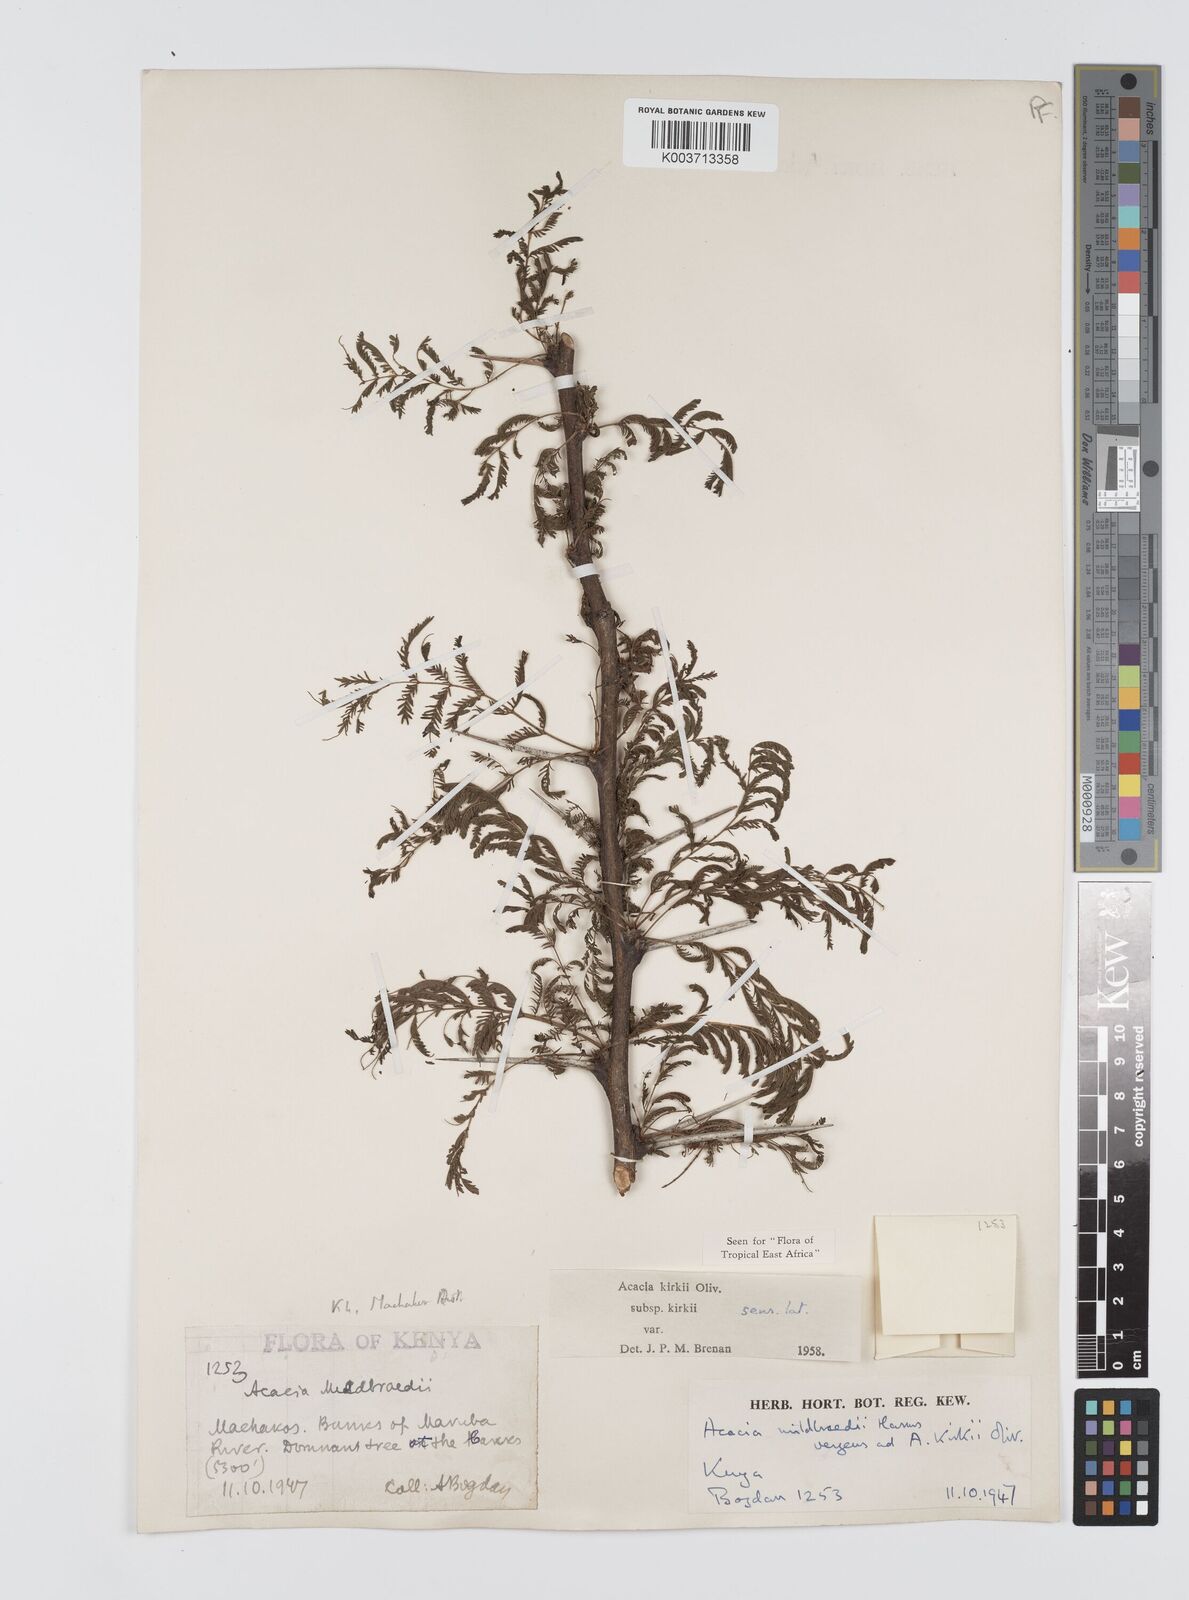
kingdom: Plantae
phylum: Tracheophyta
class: Magnoliopsida
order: Fabales
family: Fabaceae
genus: Vachellia
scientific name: Vachellia kirkii
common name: Flood-plain acacia
